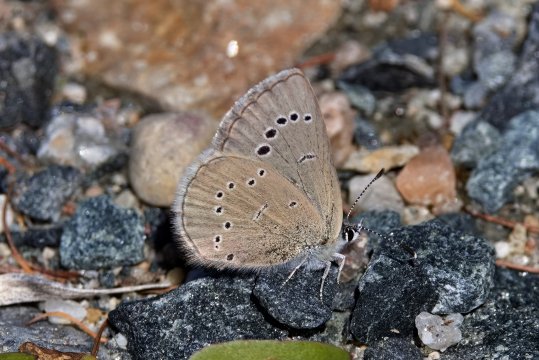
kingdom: Animalia
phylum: Arthropoda
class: Insecta
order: Lepidoptera
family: Lycaenidae
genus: Glaucopsyche
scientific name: Glaucopsyche lygdamus
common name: Silvery Blue
